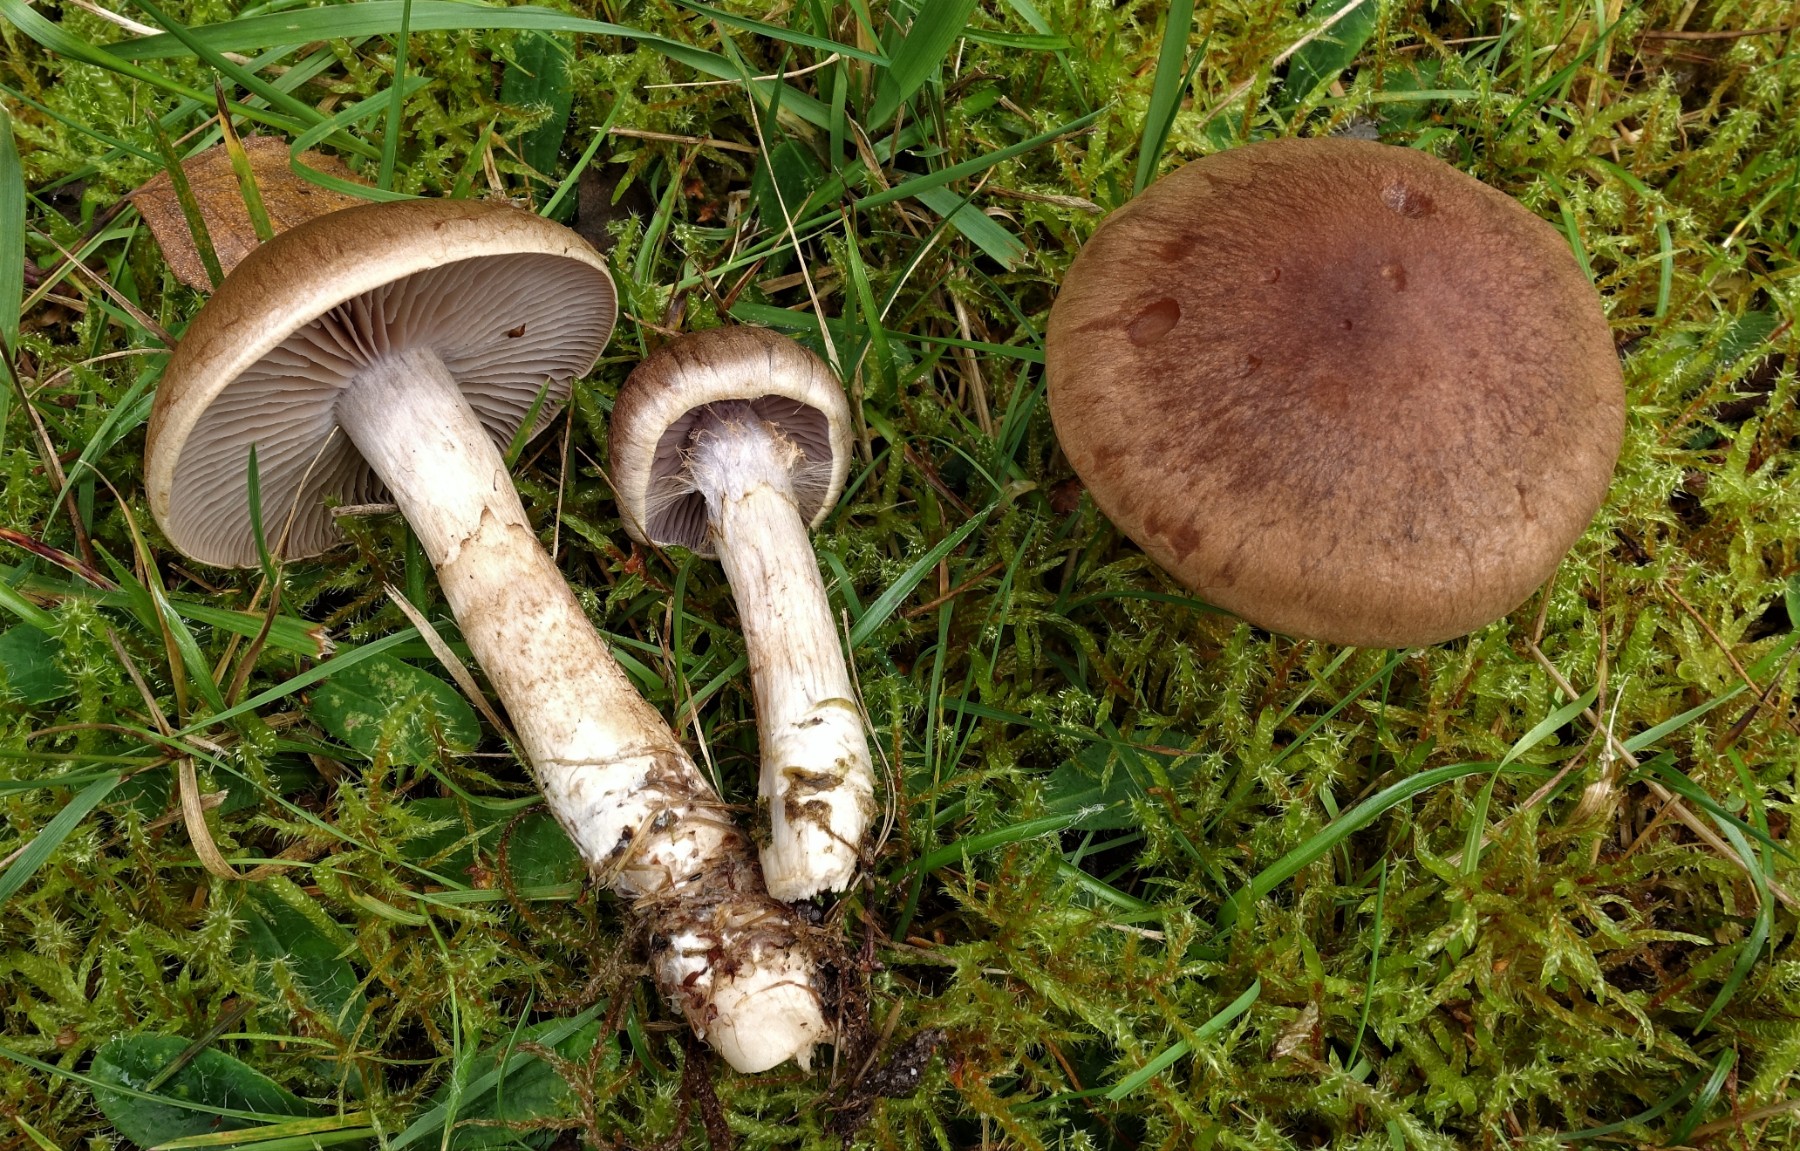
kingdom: Fungi
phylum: Basidiomycota
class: Agaricomycetes
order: Agaricales
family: Cortinariaceae
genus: Cortinarius
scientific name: Cortinarius caninus
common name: gran-slørhat
